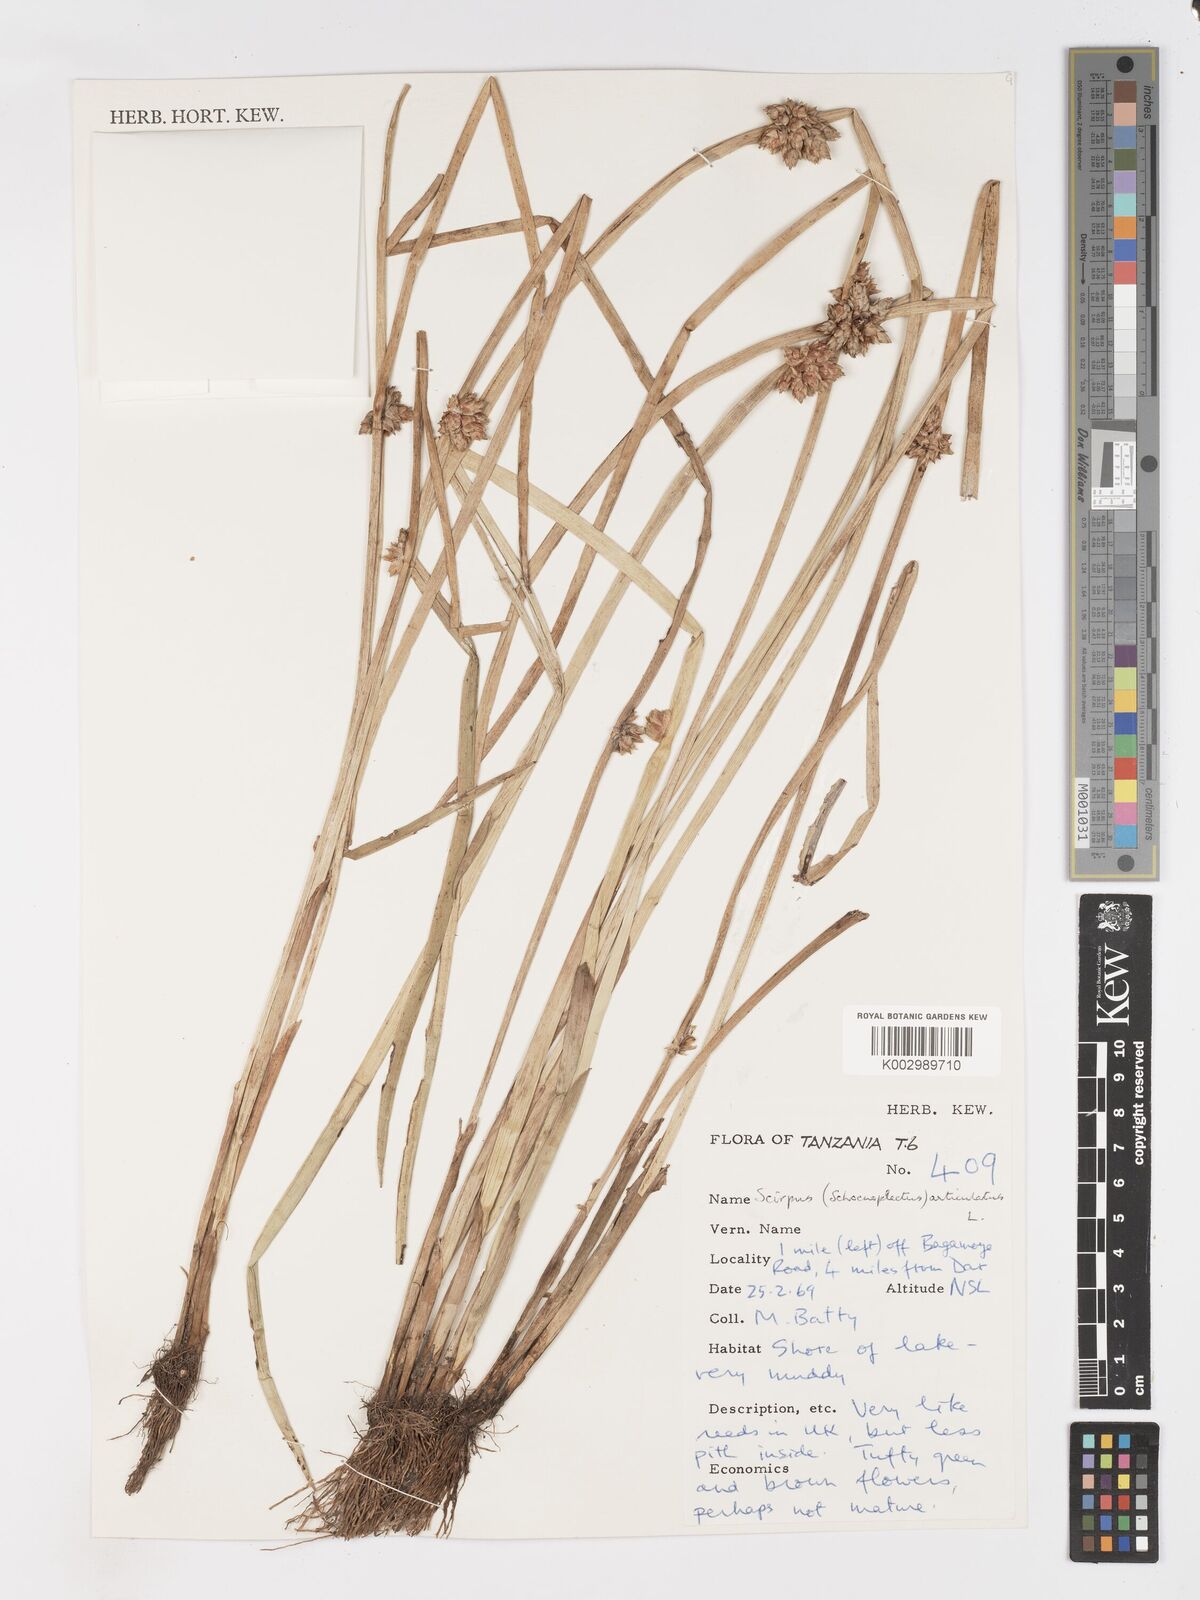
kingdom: Plantae
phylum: Tracheophyta
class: Liliopsida
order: Poales
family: Cyperaceae
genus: Schoenoplectiella
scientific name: Schoenoplectiella articulata
